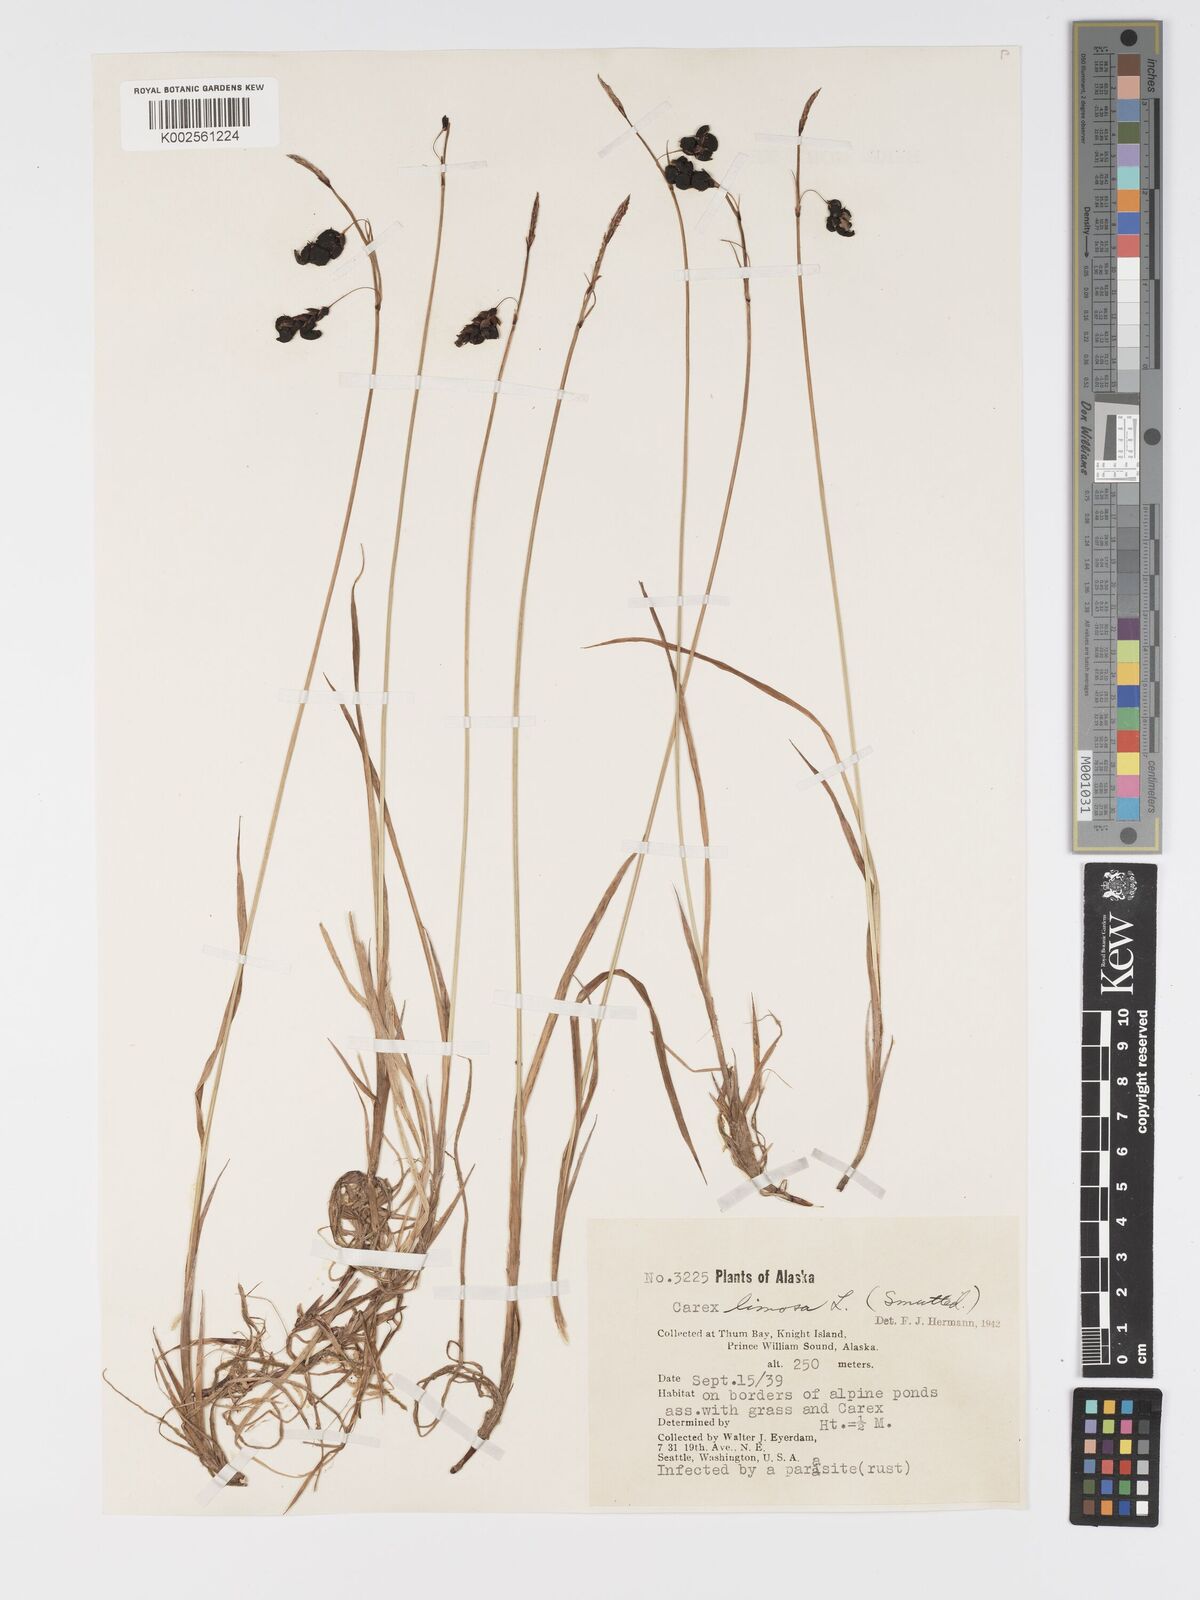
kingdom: Plantae
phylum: Tracheophyta
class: Liliopsida
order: Poales
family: Cyperaceae
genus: Carex
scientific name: Carex limosa
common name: Bog sedge
